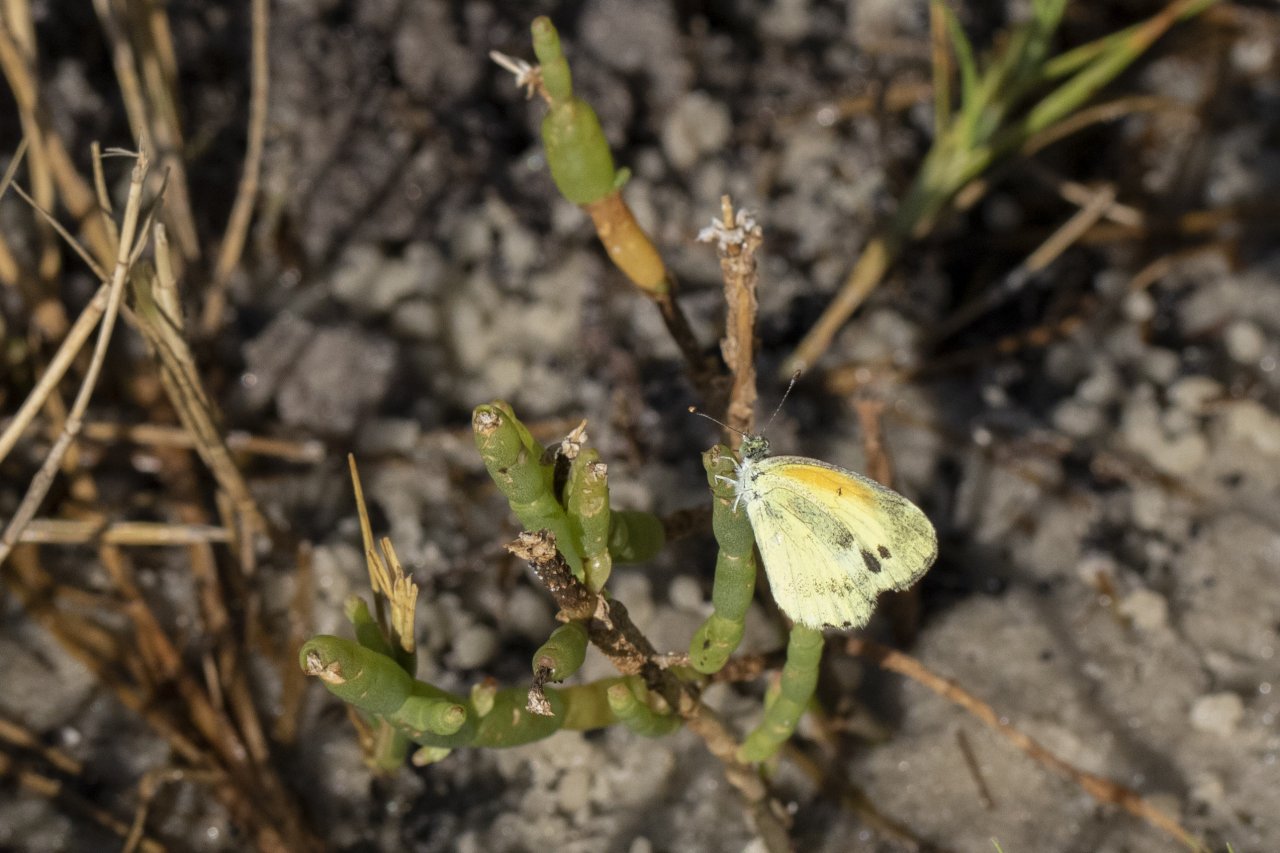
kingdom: Animalia
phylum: Arthropoda
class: Insecta
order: Lepidoptera
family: Pieridae
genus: Nathalis
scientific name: Nathalis iole
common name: Dainty Sulphur
